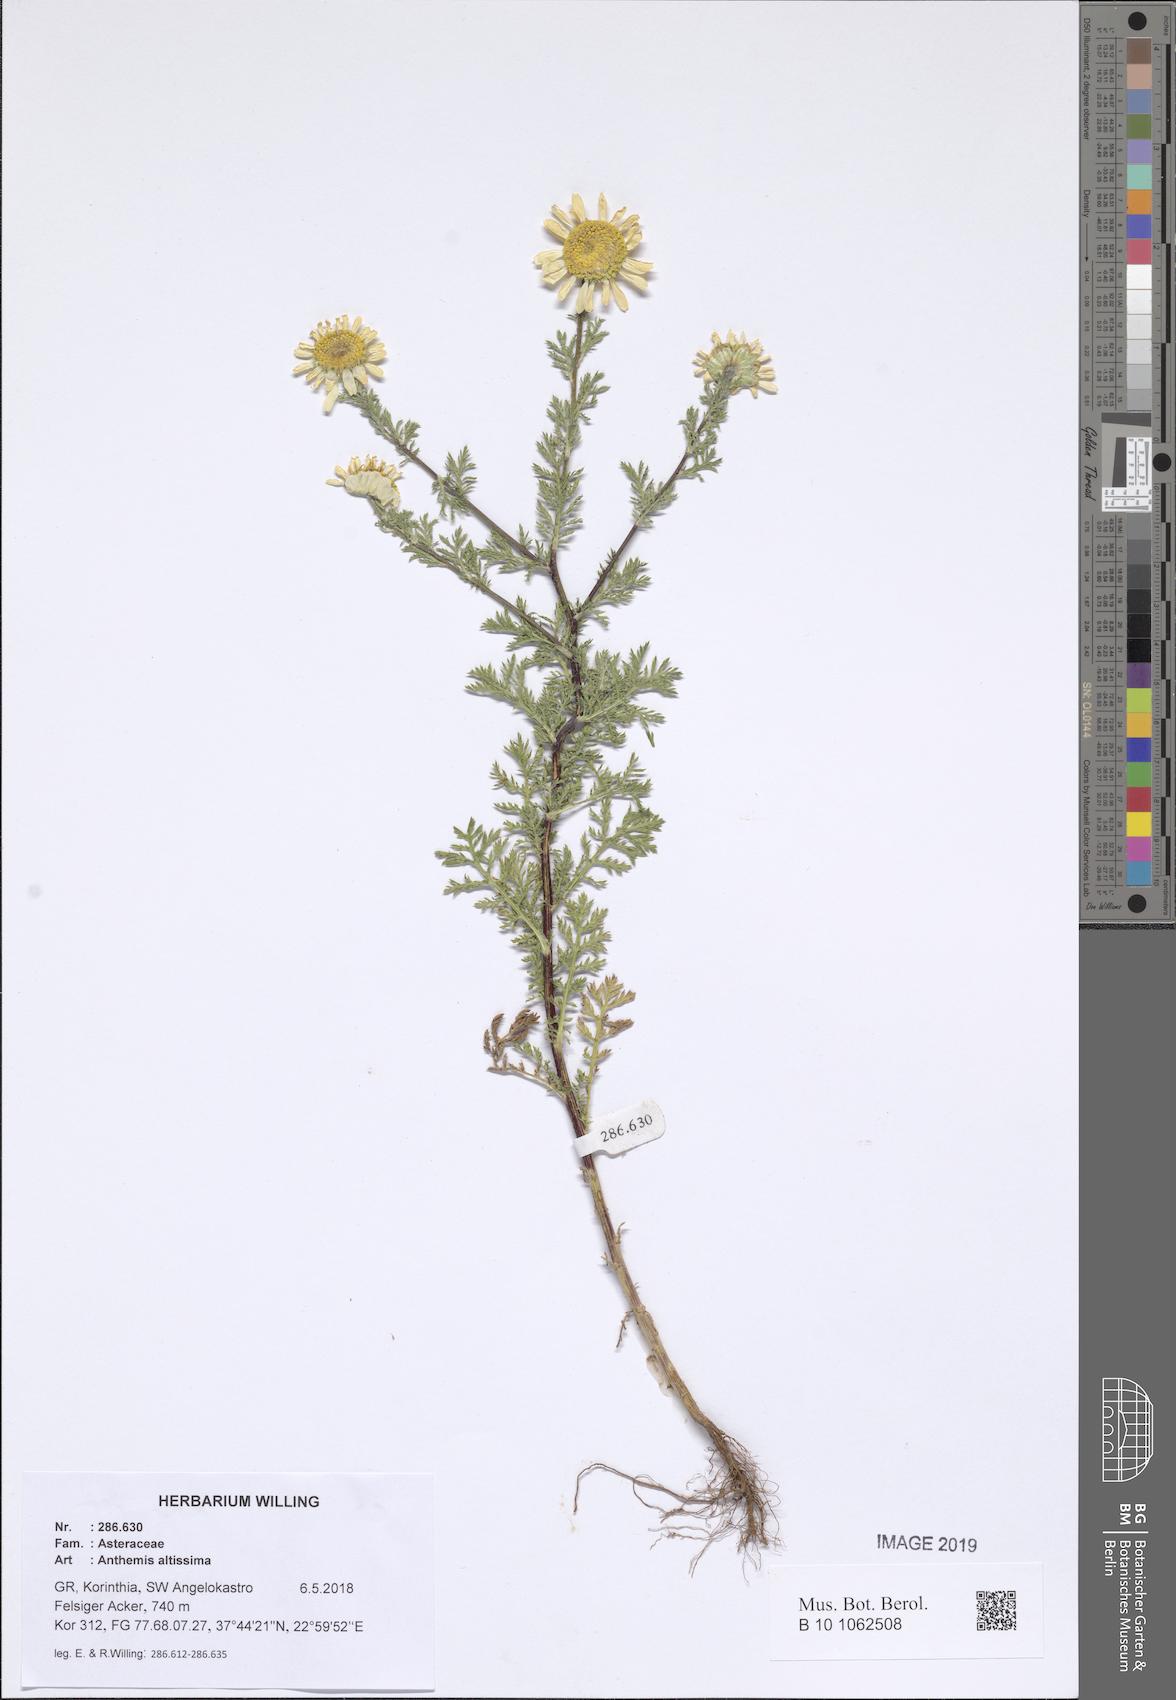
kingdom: Plantae
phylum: Tracheophyta
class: Magnoliopsida
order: Asterales
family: Asteraceae
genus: Cota
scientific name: Cota altissima
